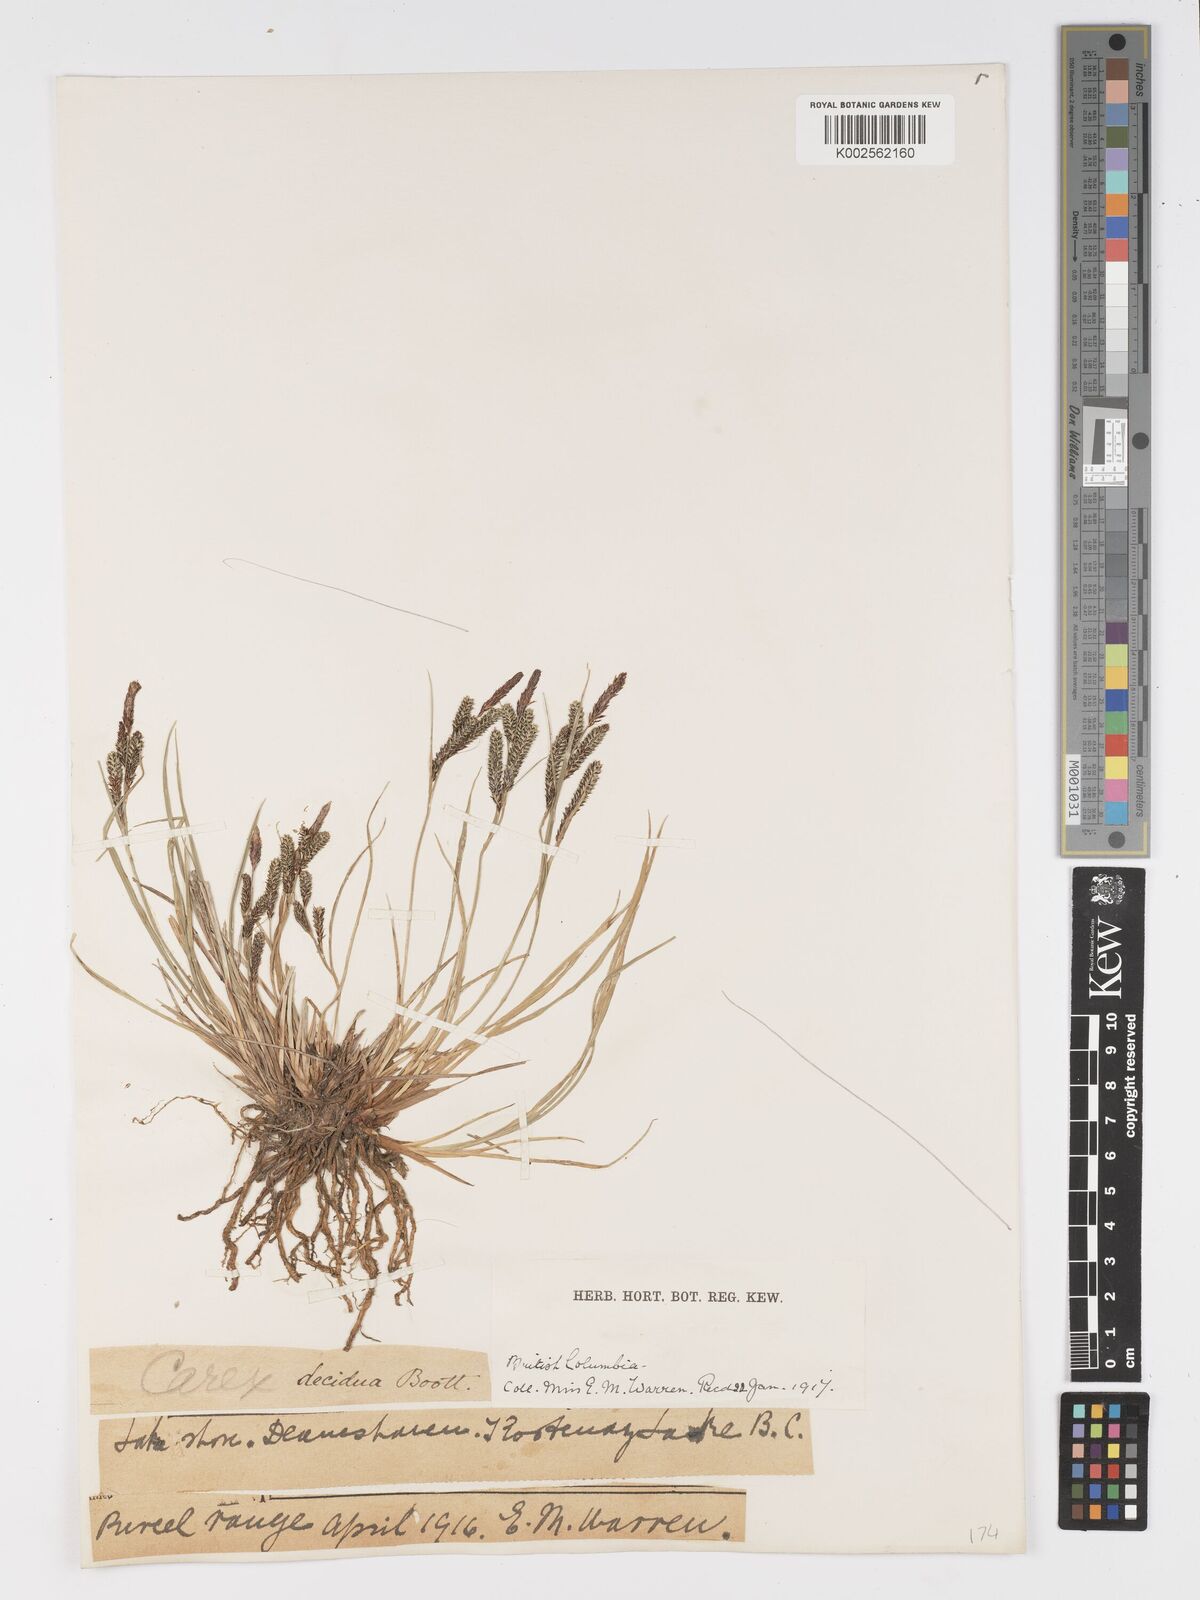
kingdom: Plantae
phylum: Tracheophyta
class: Liliopsida
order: Poales
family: Cyperaceae
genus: Carex
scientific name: Carex kelloggii
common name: Kellogg's sedge
